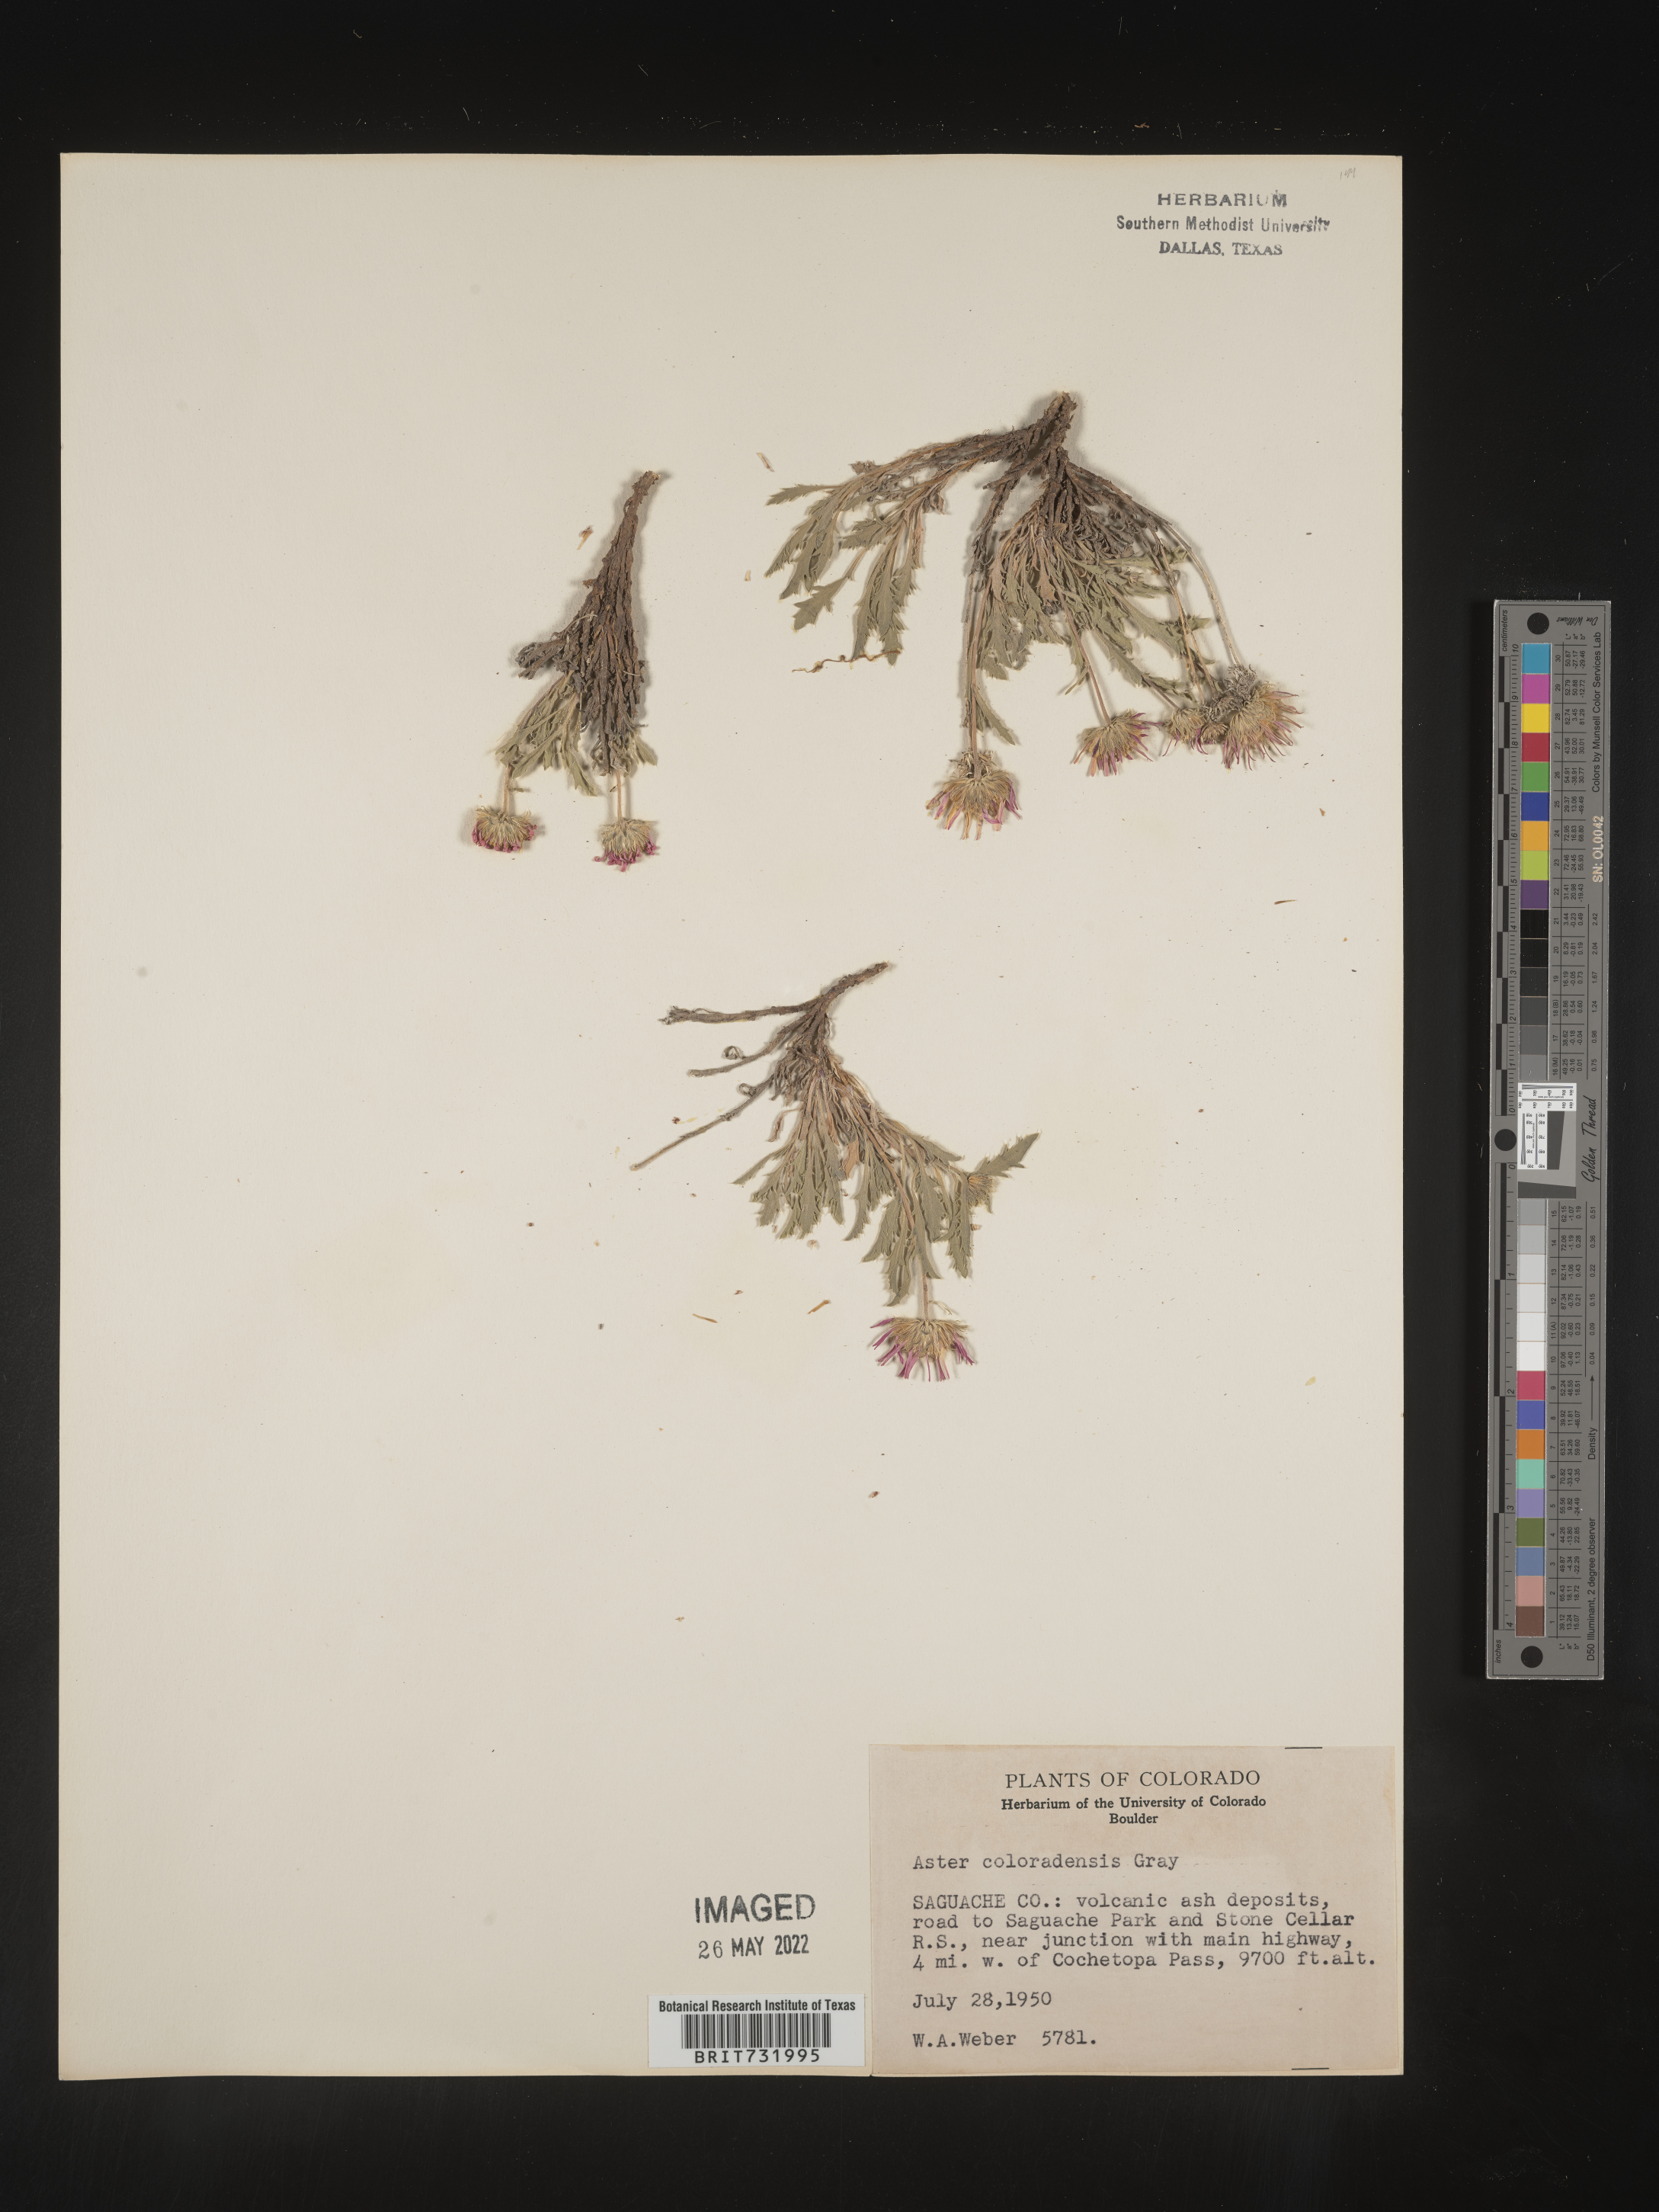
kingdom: Plantae
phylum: Tracheophyta
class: Magnoliopsida
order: Asterales
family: Asteraceae
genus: Xanthisma
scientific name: Xanthisma coloradoense
